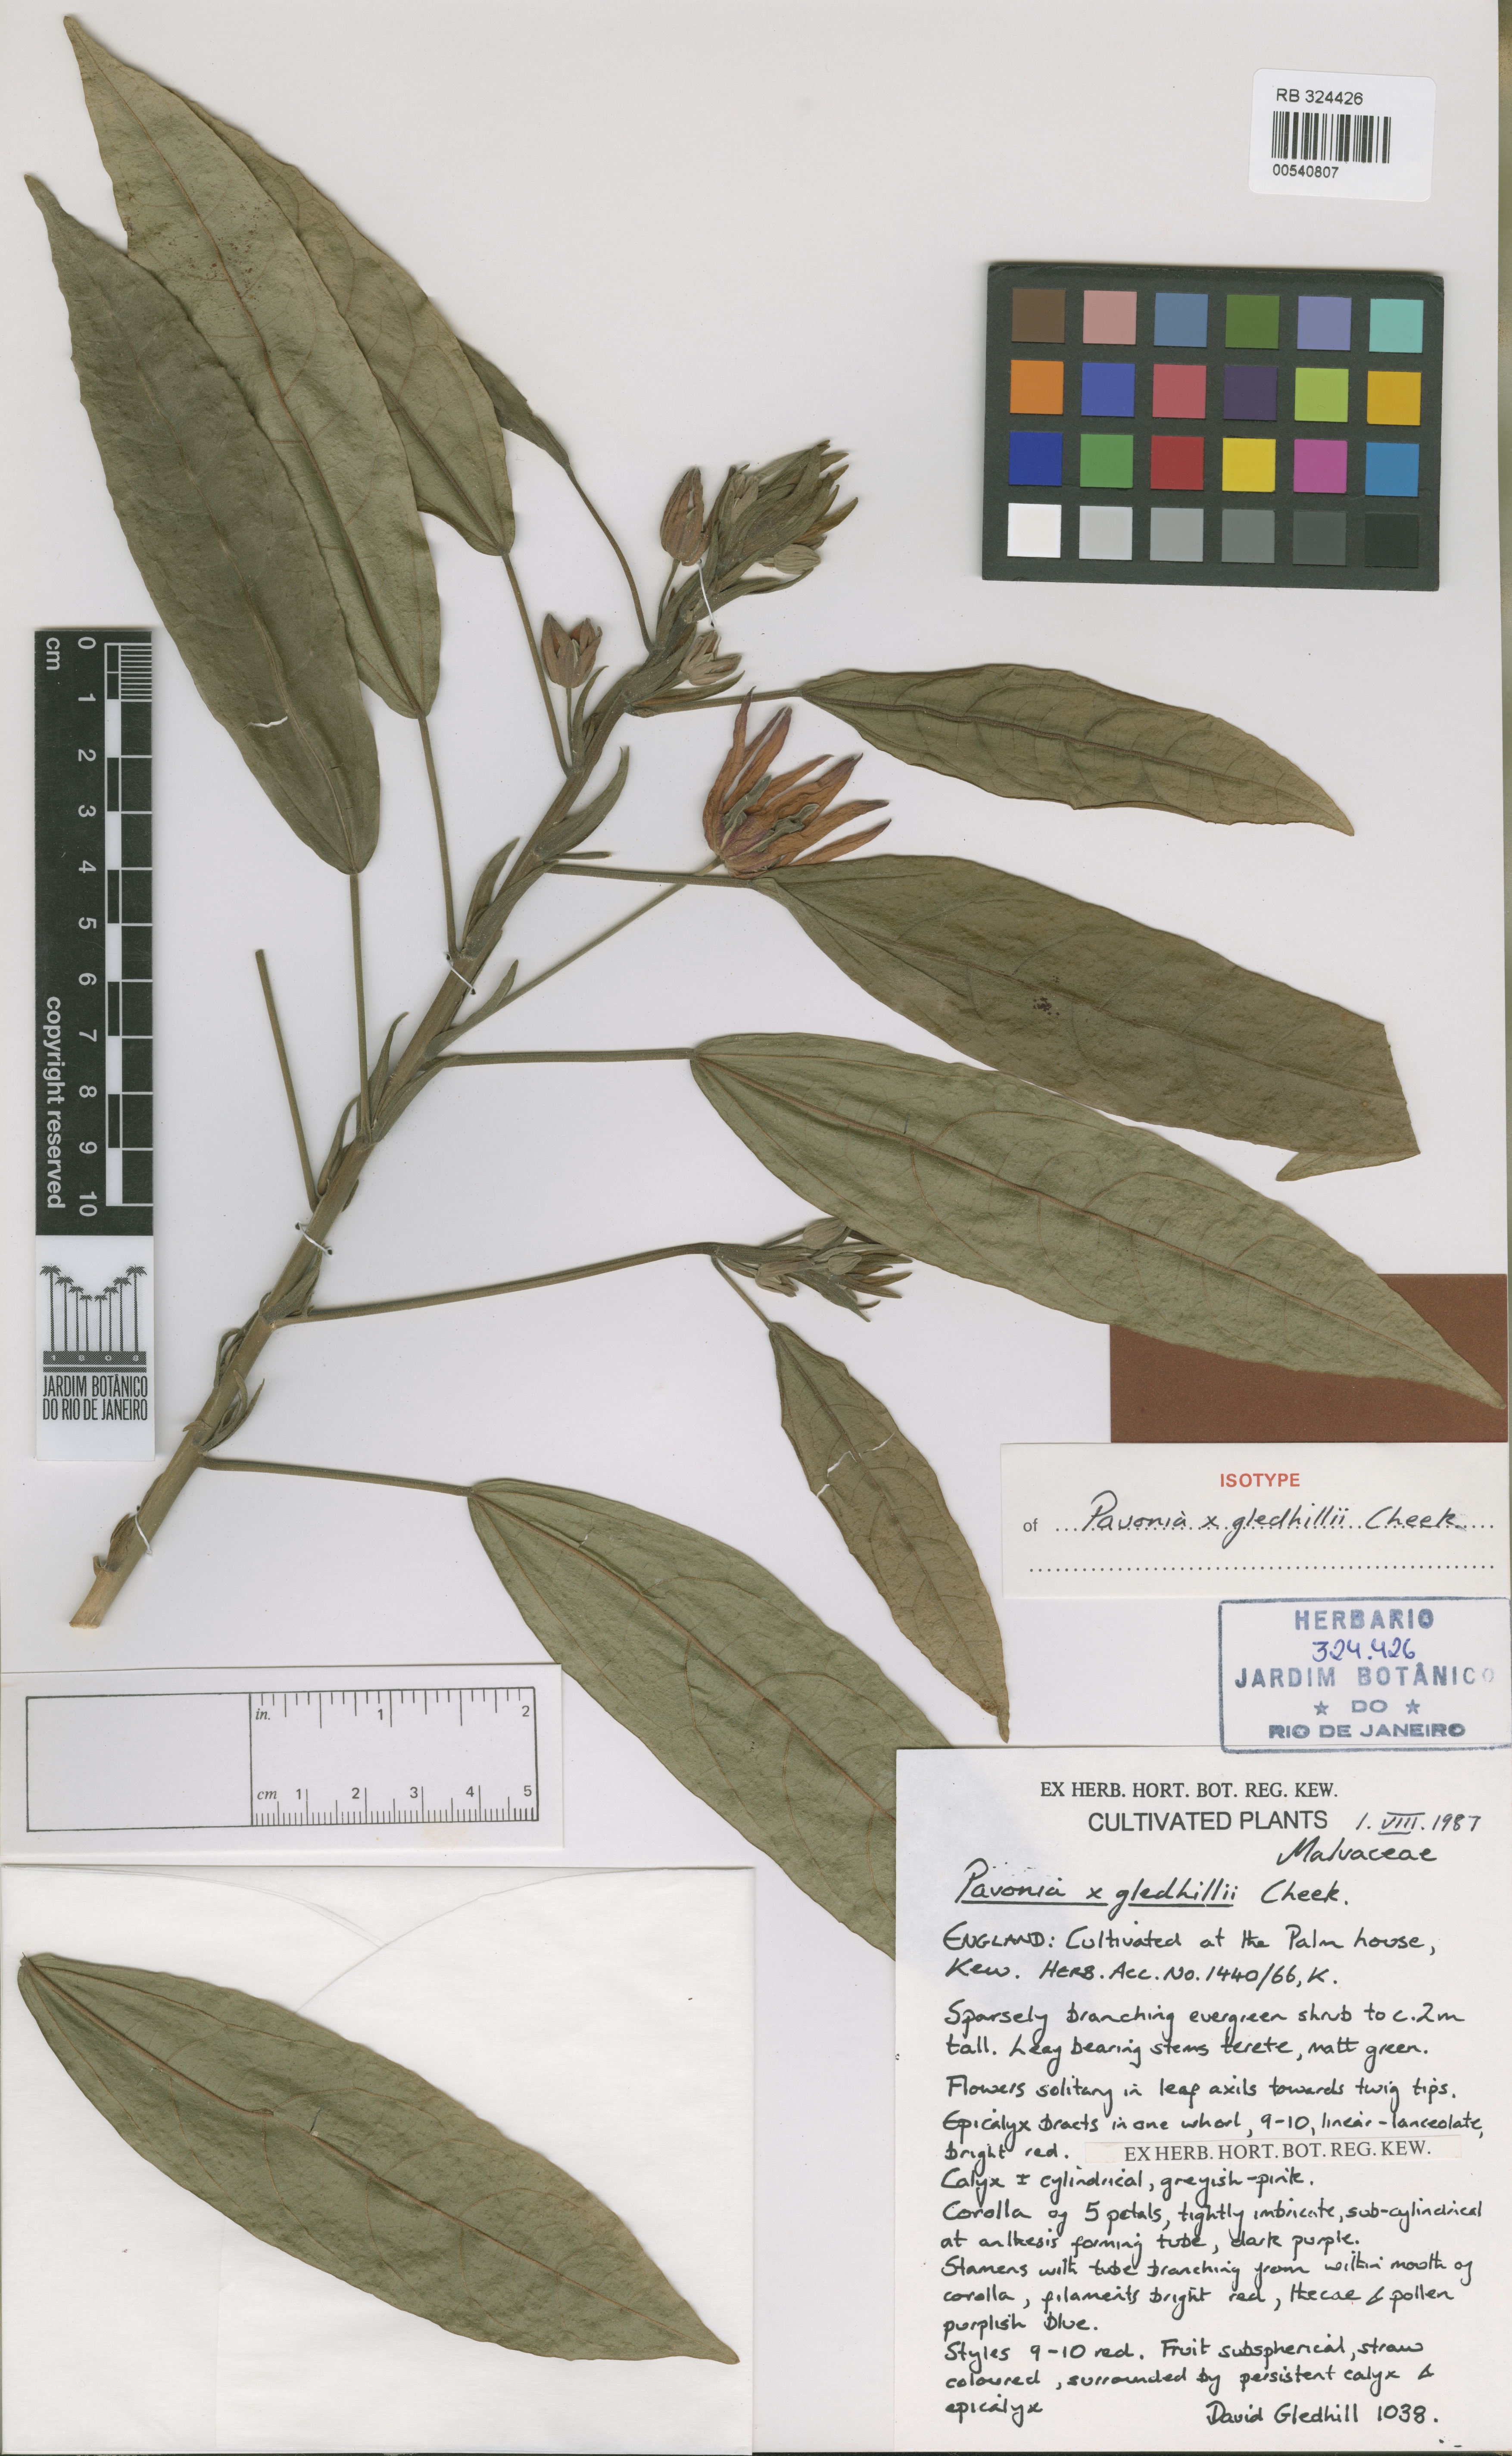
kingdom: Plantae
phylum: Tracheophyta
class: Magnoliopsida
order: Malvales
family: Malvaceae
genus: Pavonia
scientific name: Pavonia gledhillii
